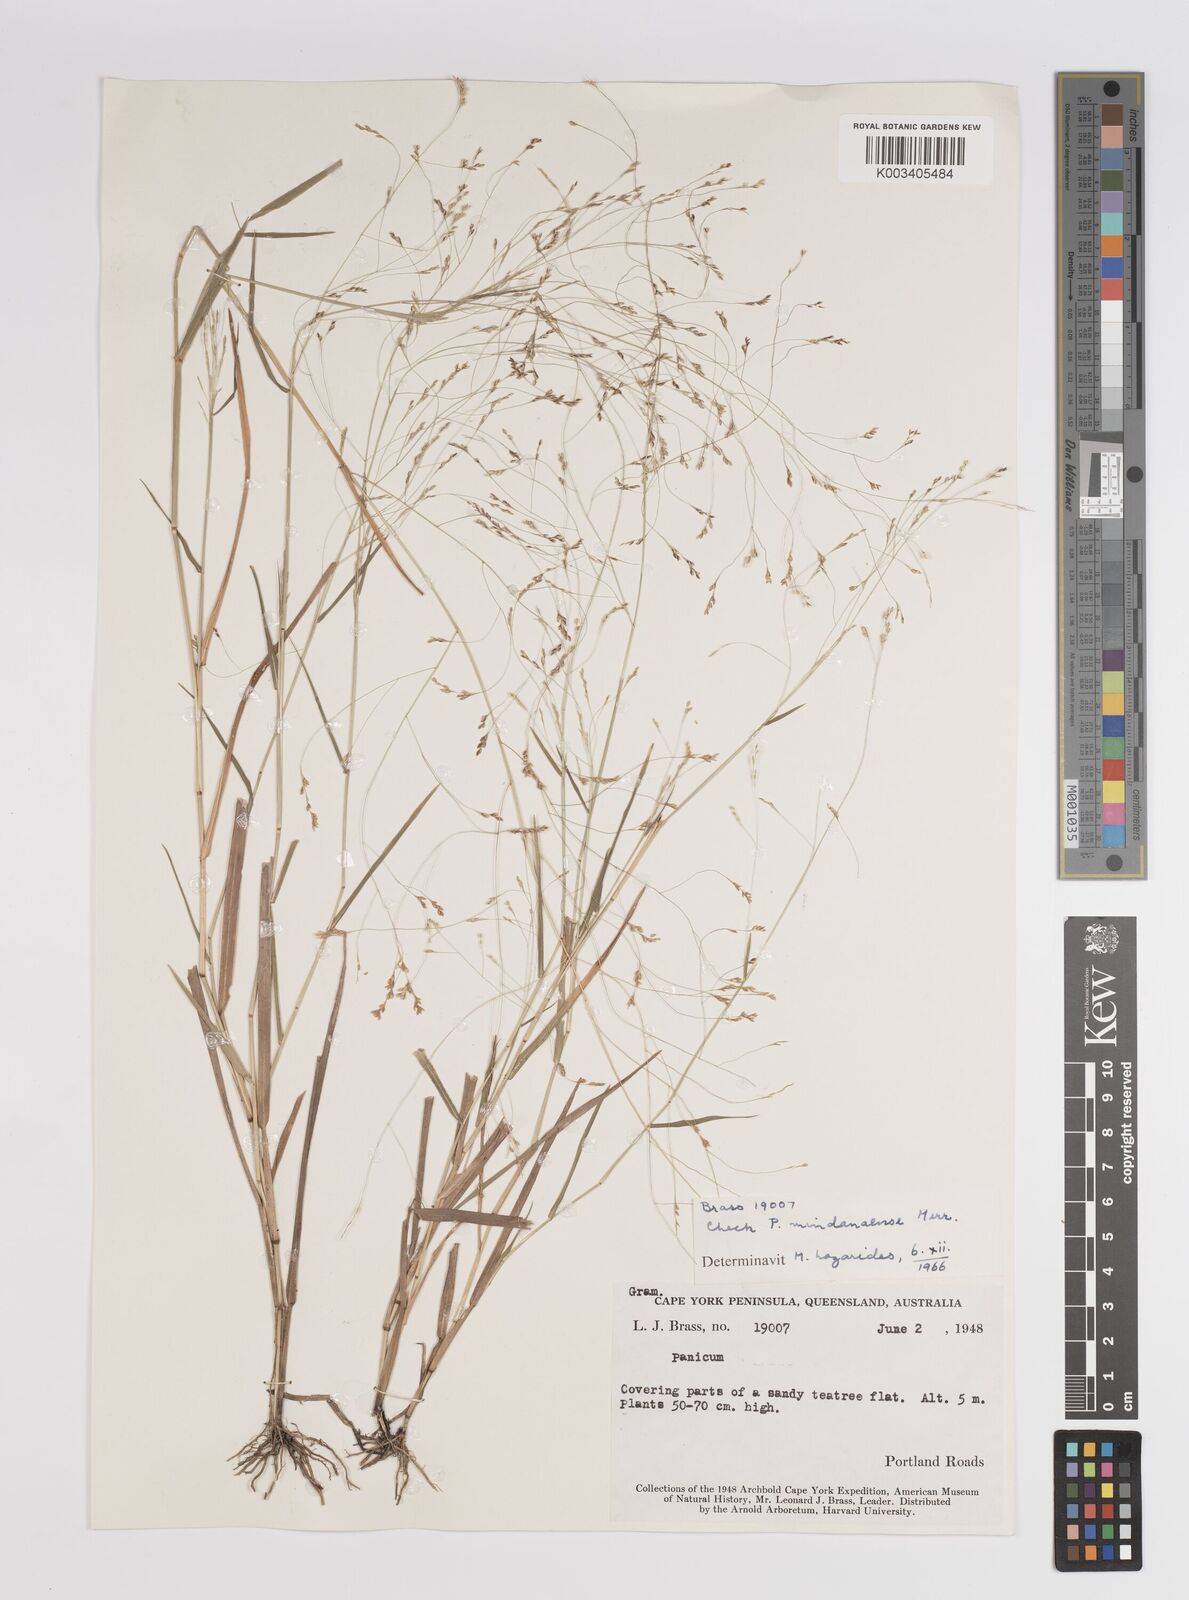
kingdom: Plantae
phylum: Tracheophyta
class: Liliopsida
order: Poales
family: Poaceae
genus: Panicum
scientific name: Panicum
